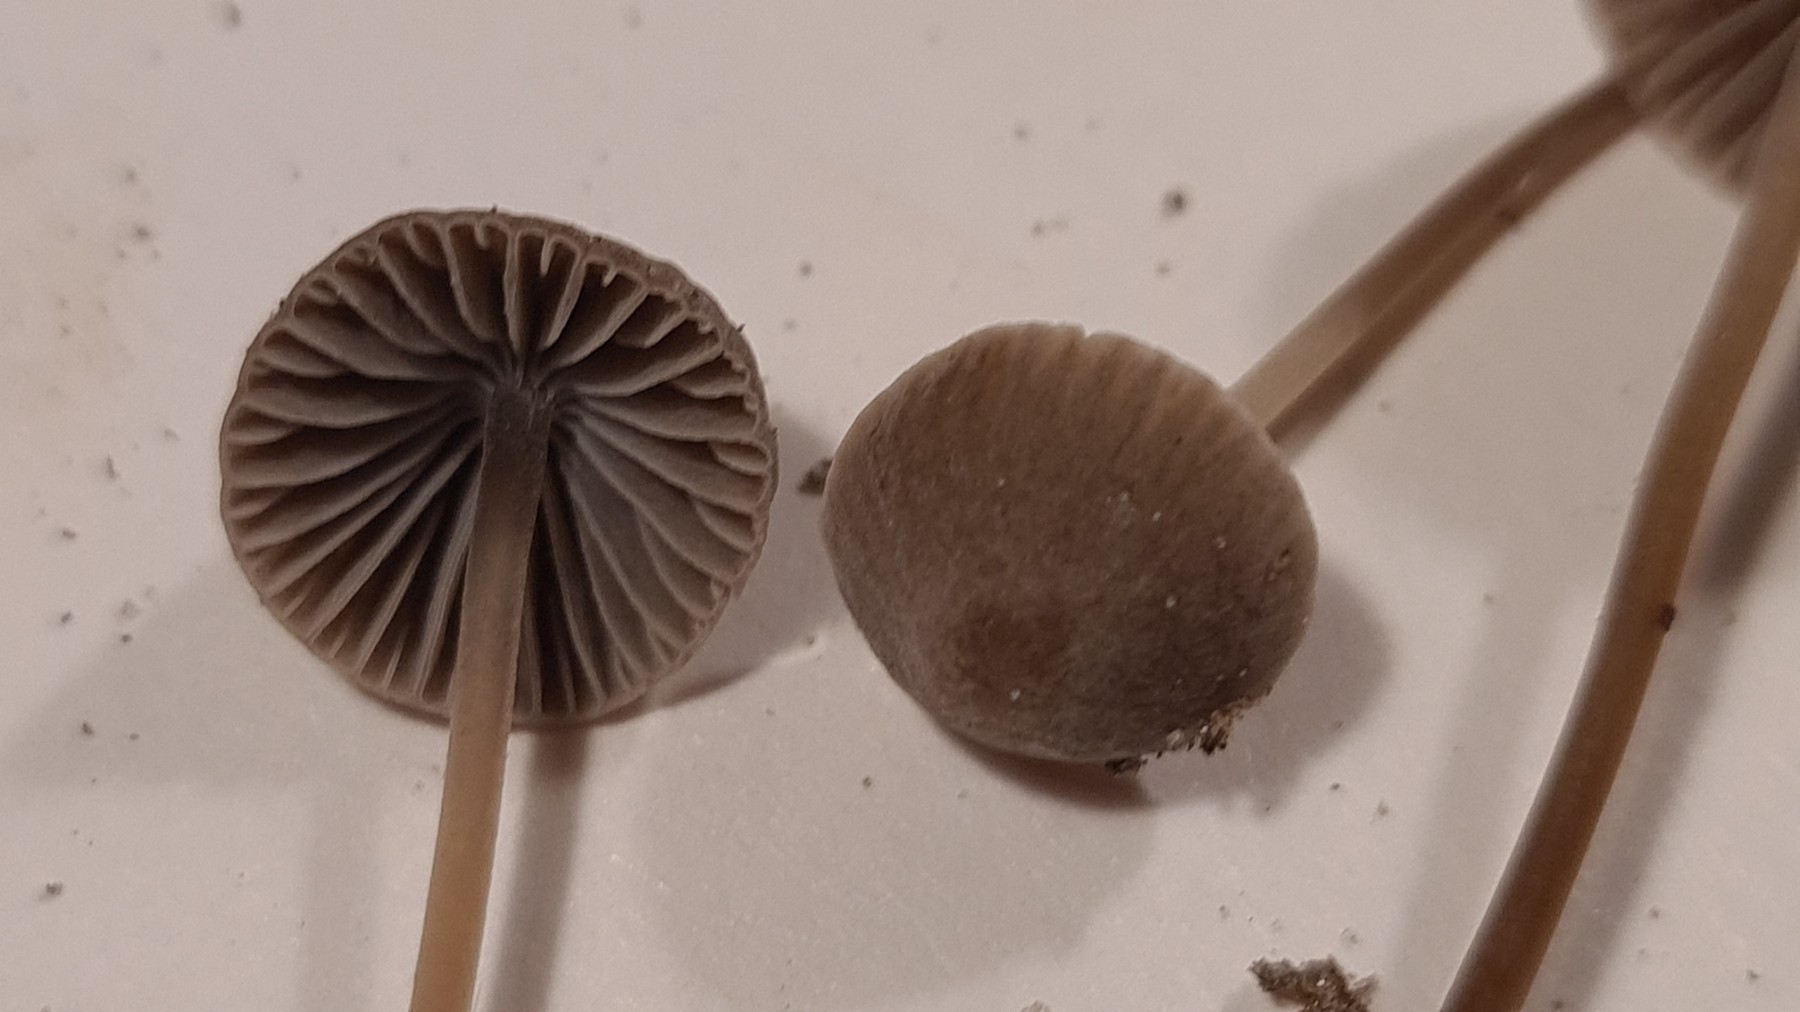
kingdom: Fungi
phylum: Basidiomycota
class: Agaricomycetes
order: Agaricales
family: Mycenaceae
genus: Mycena
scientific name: Mycena aetites
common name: plæne-huesvamp
